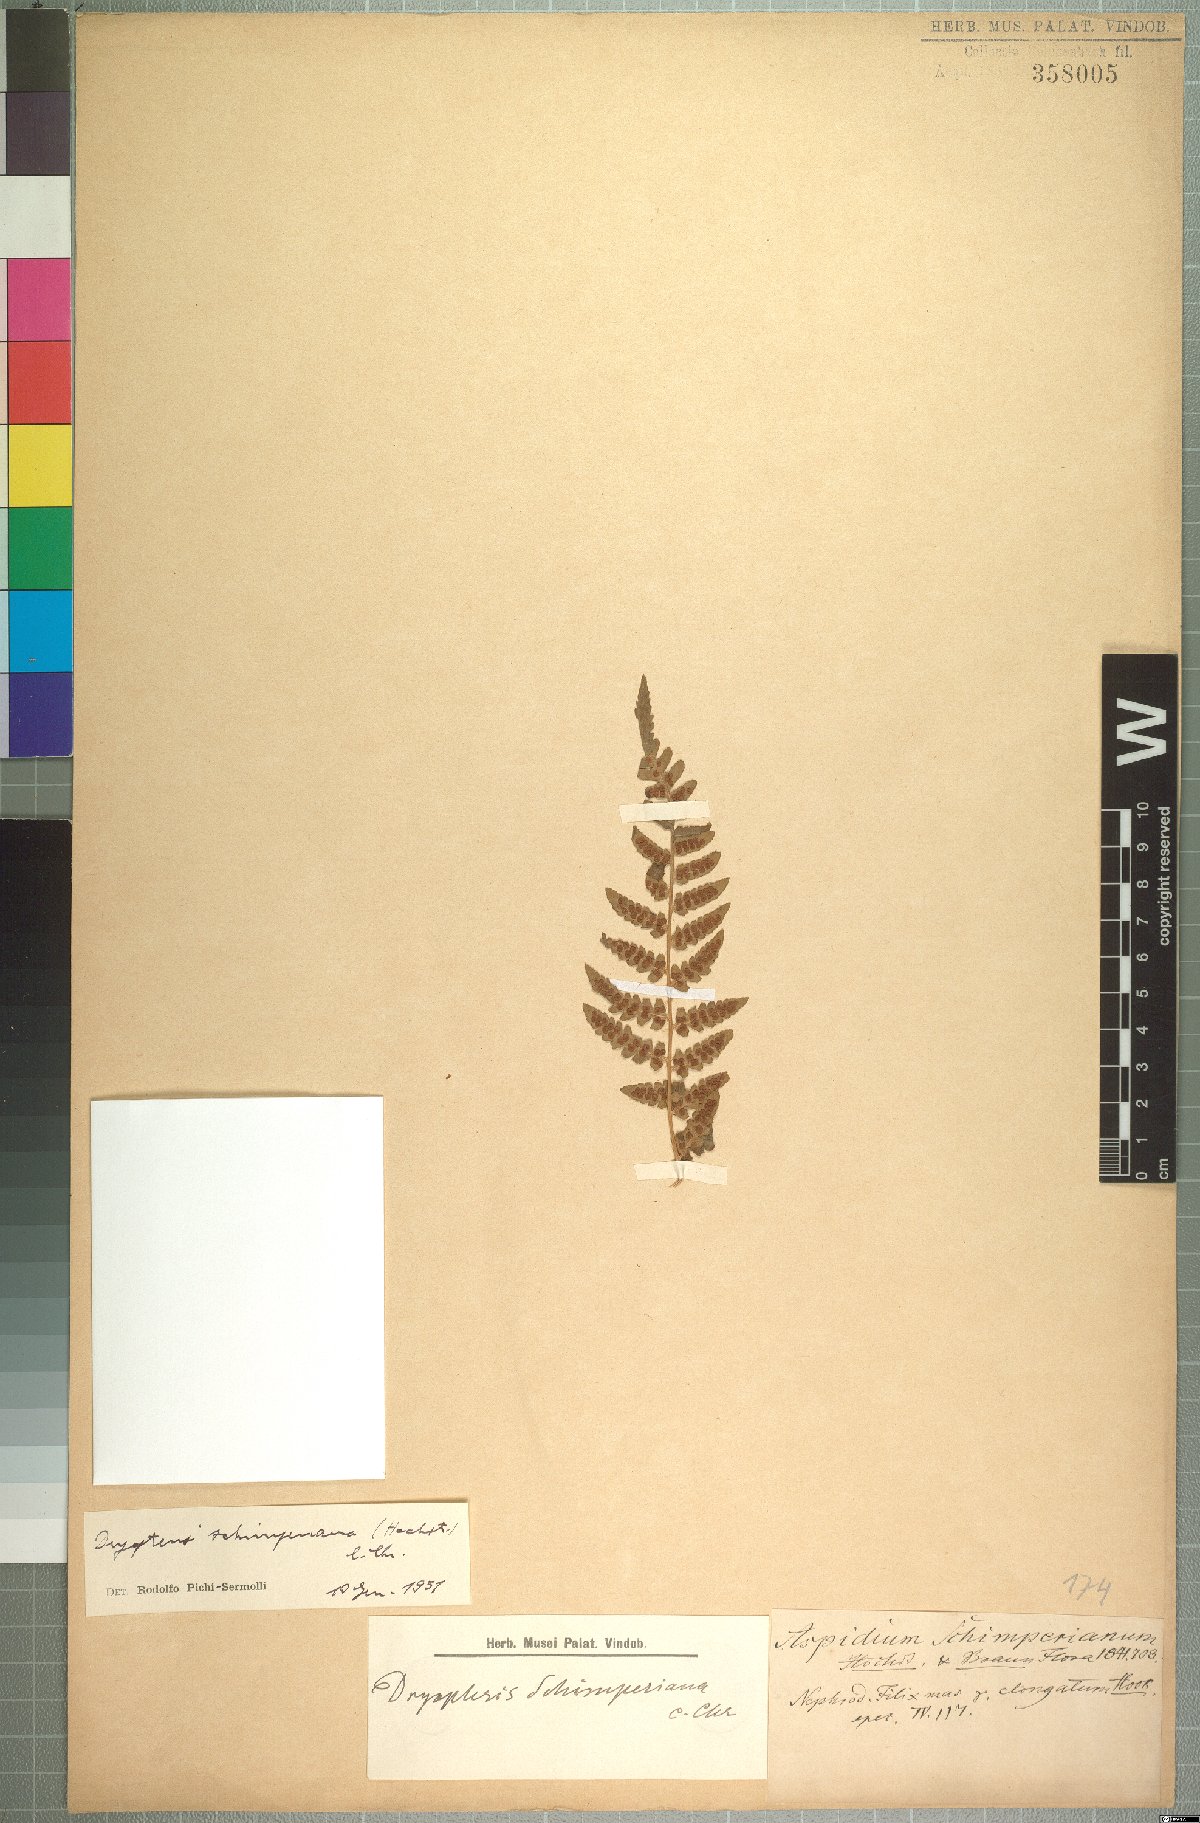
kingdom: Plantae
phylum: Tracheophyta
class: Polypodiopsida
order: Polypodiales
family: Dryopteridaceae
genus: Dryopteris
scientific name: Dryopteris schimperiana
